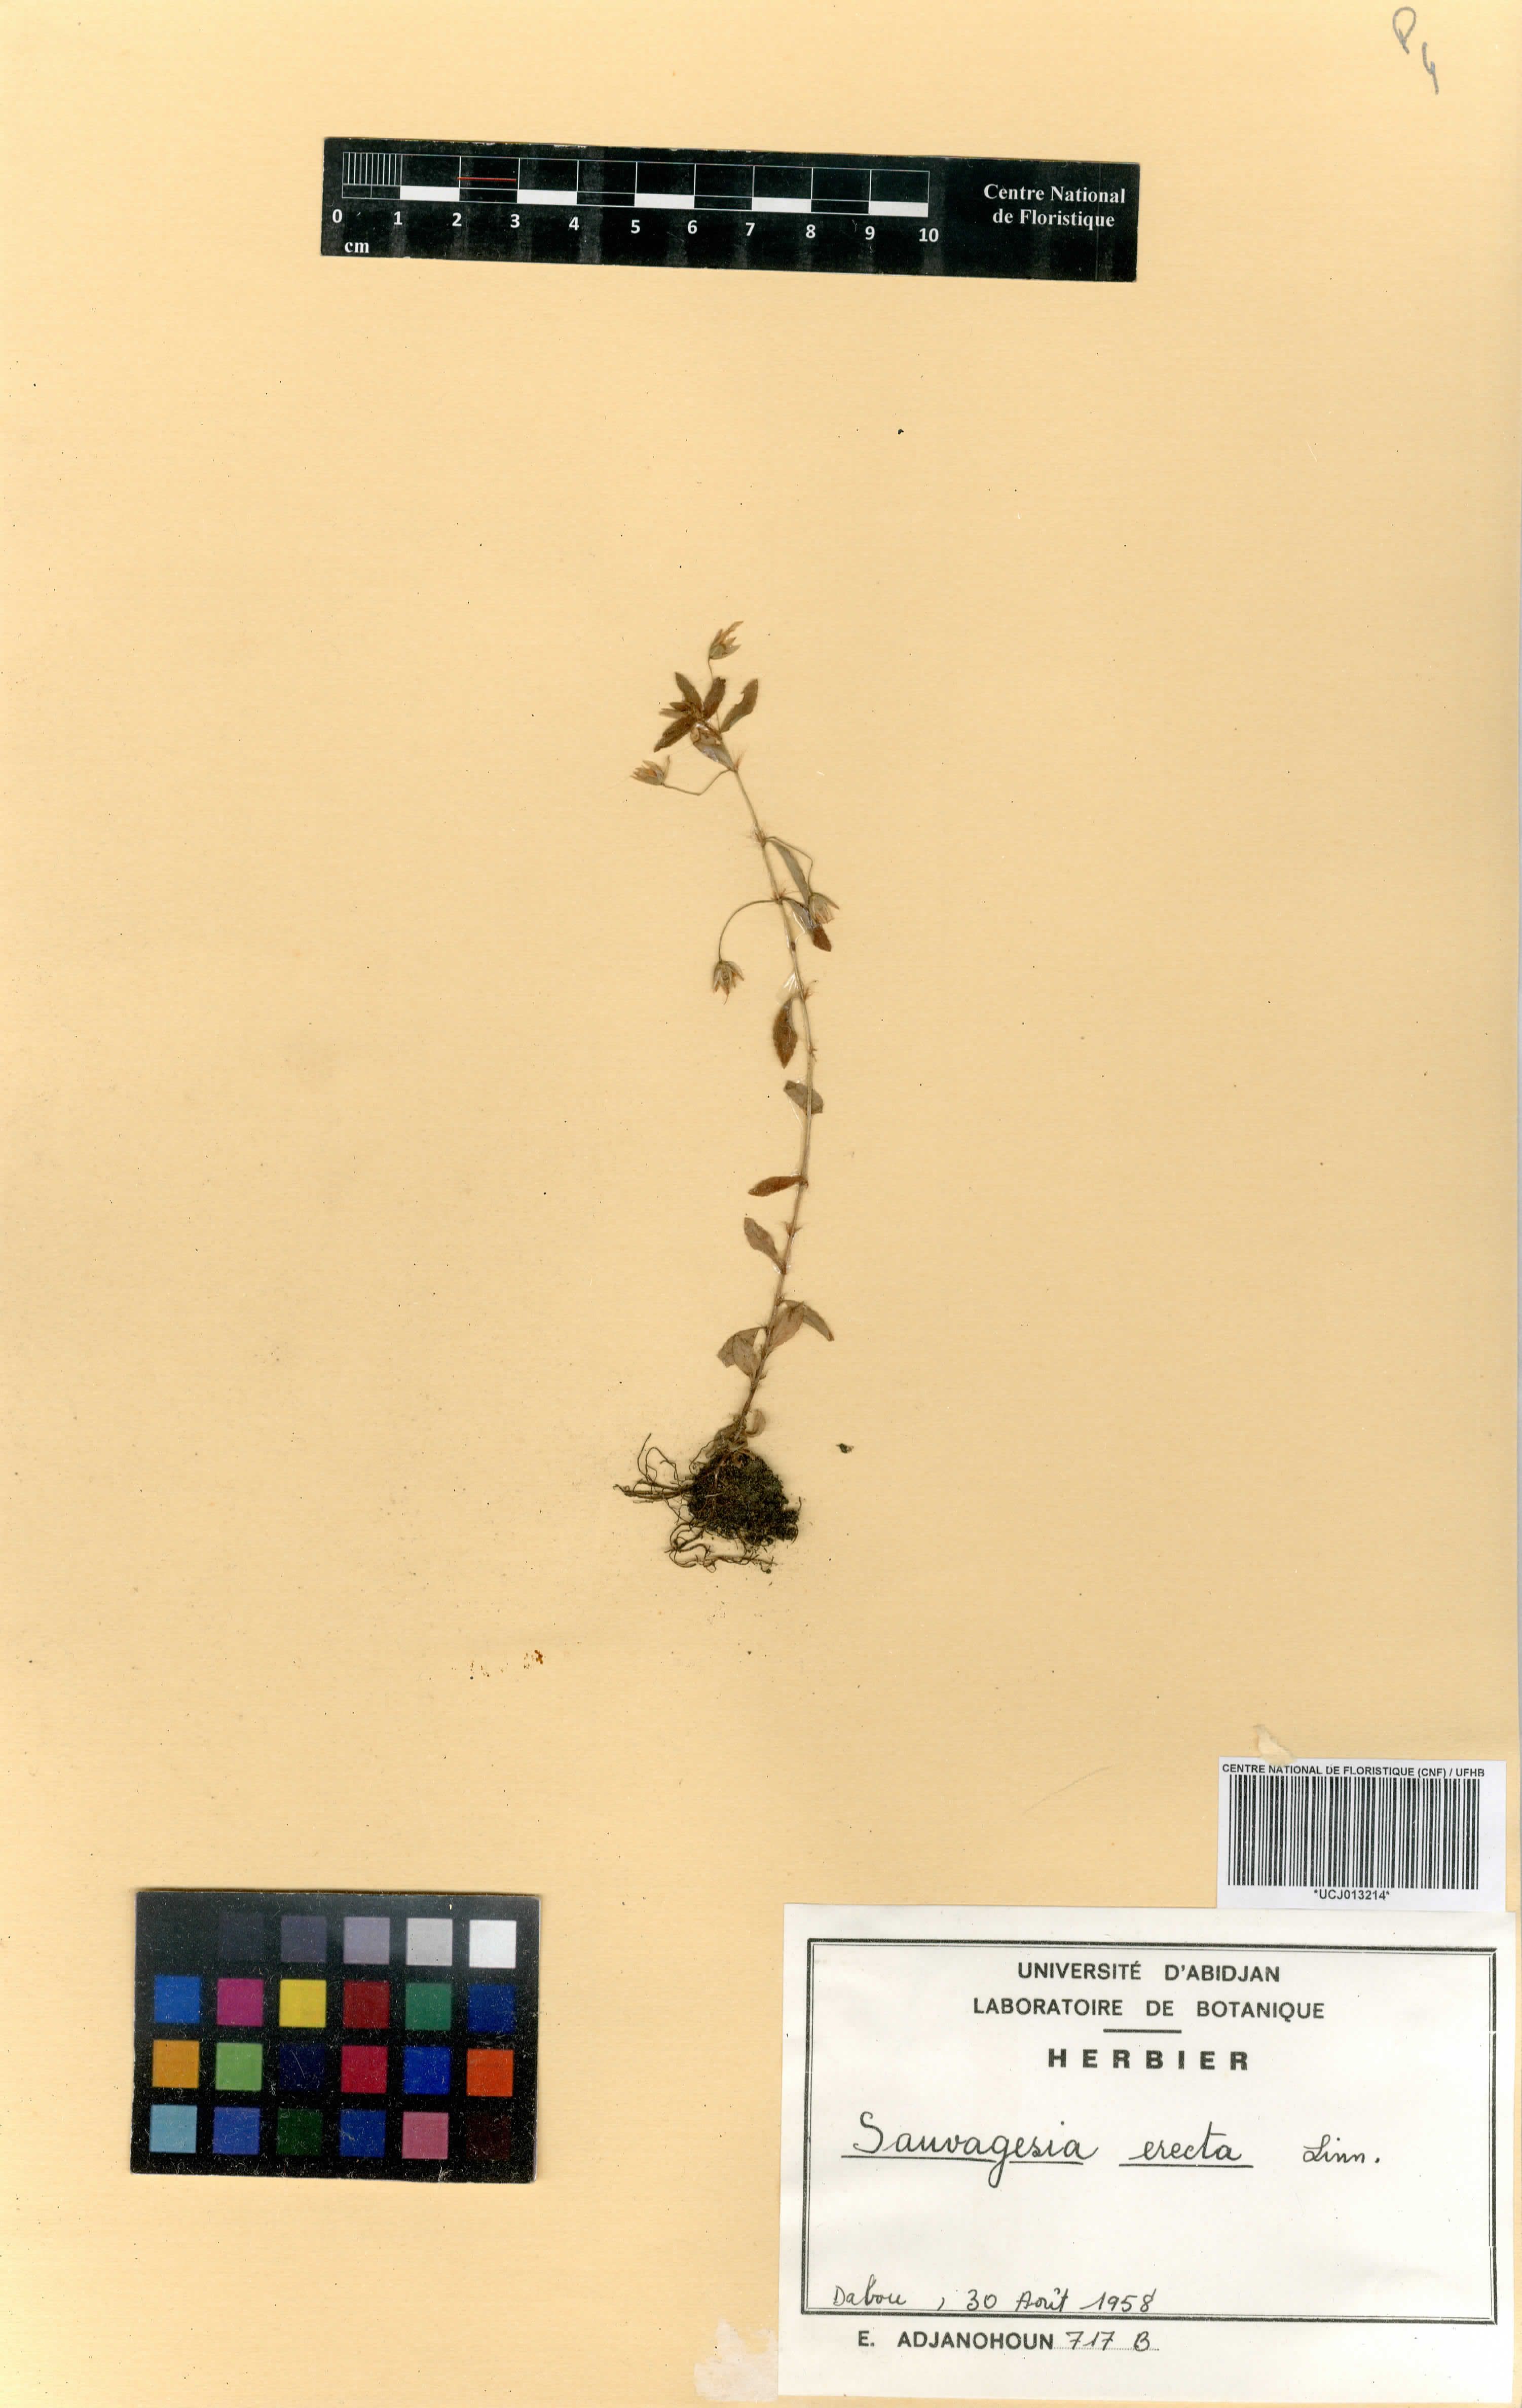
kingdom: Plantae
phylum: Tracheophyta
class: Magnoliopsida
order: Malpighiales
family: Ochnaceae
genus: Sauvagesia
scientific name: Sauvagesia erecta
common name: Creole tea
